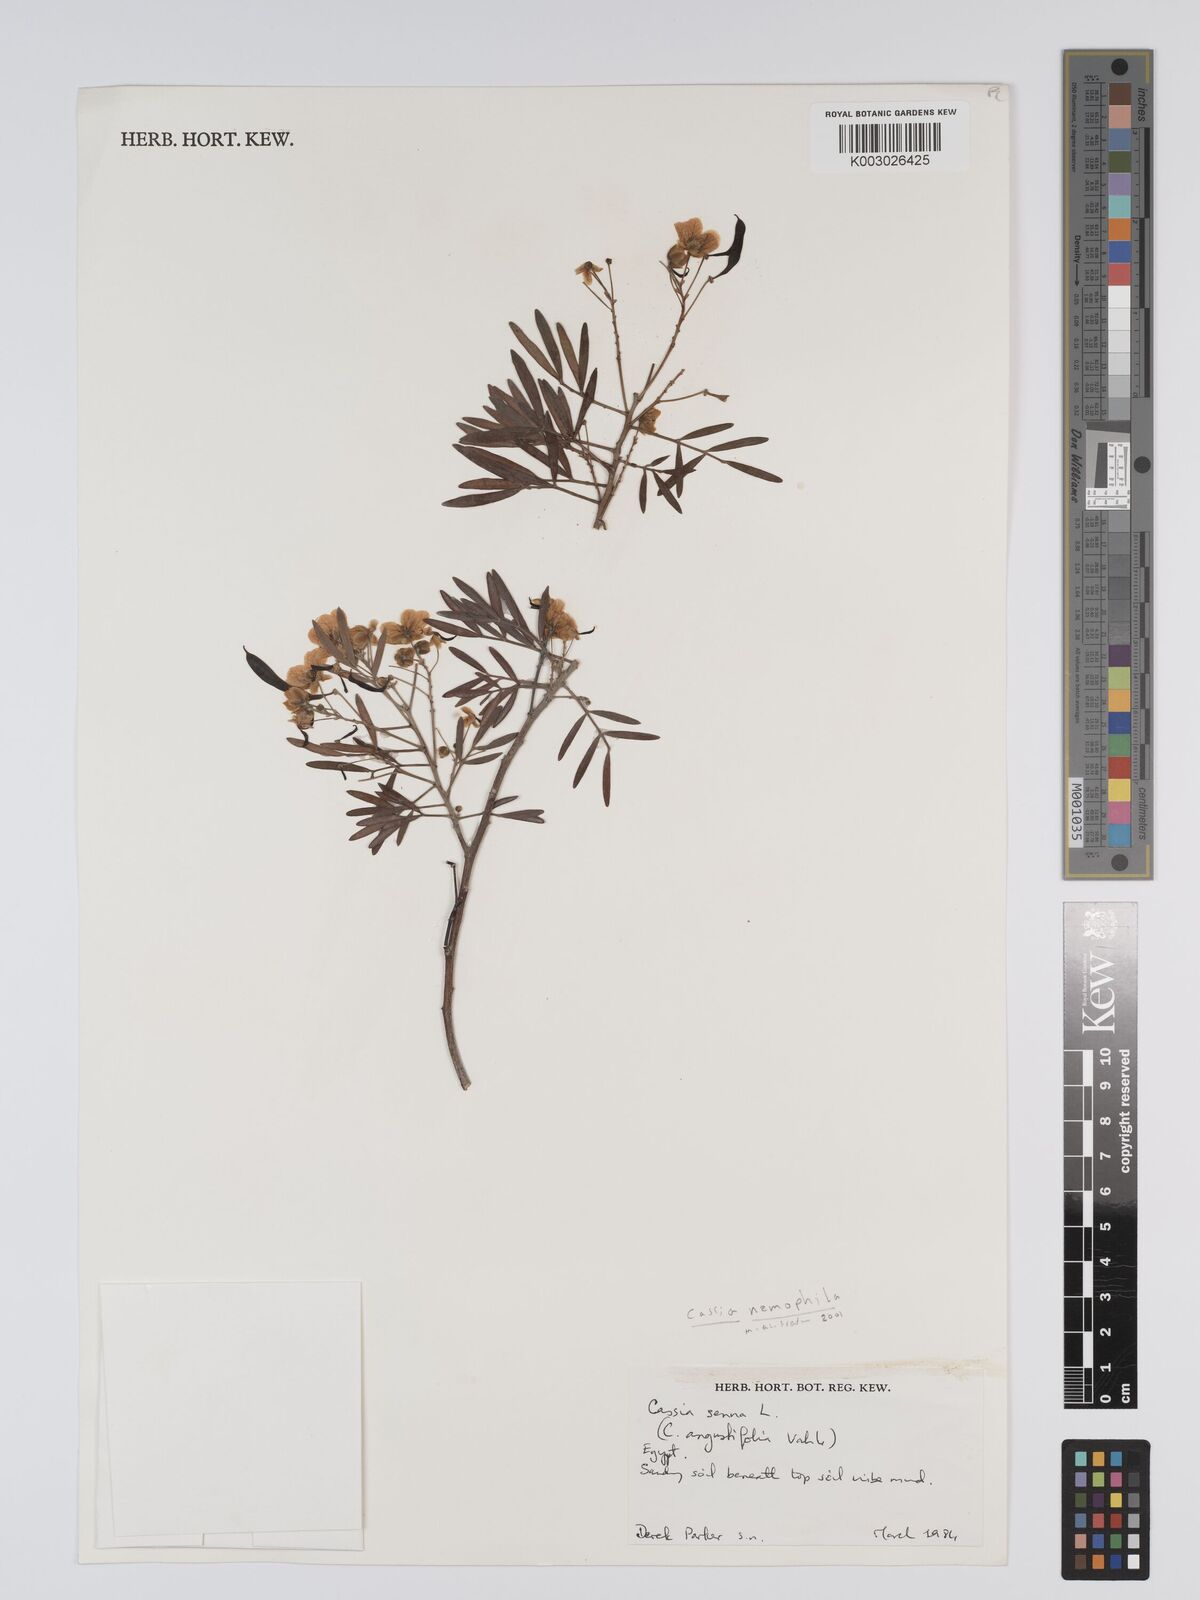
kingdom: Plantae
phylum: Tracheophyta
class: Magnoliopsida
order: Fabales
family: Fabaceae
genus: Senna
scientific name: Senna alexandrina
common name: True senna
